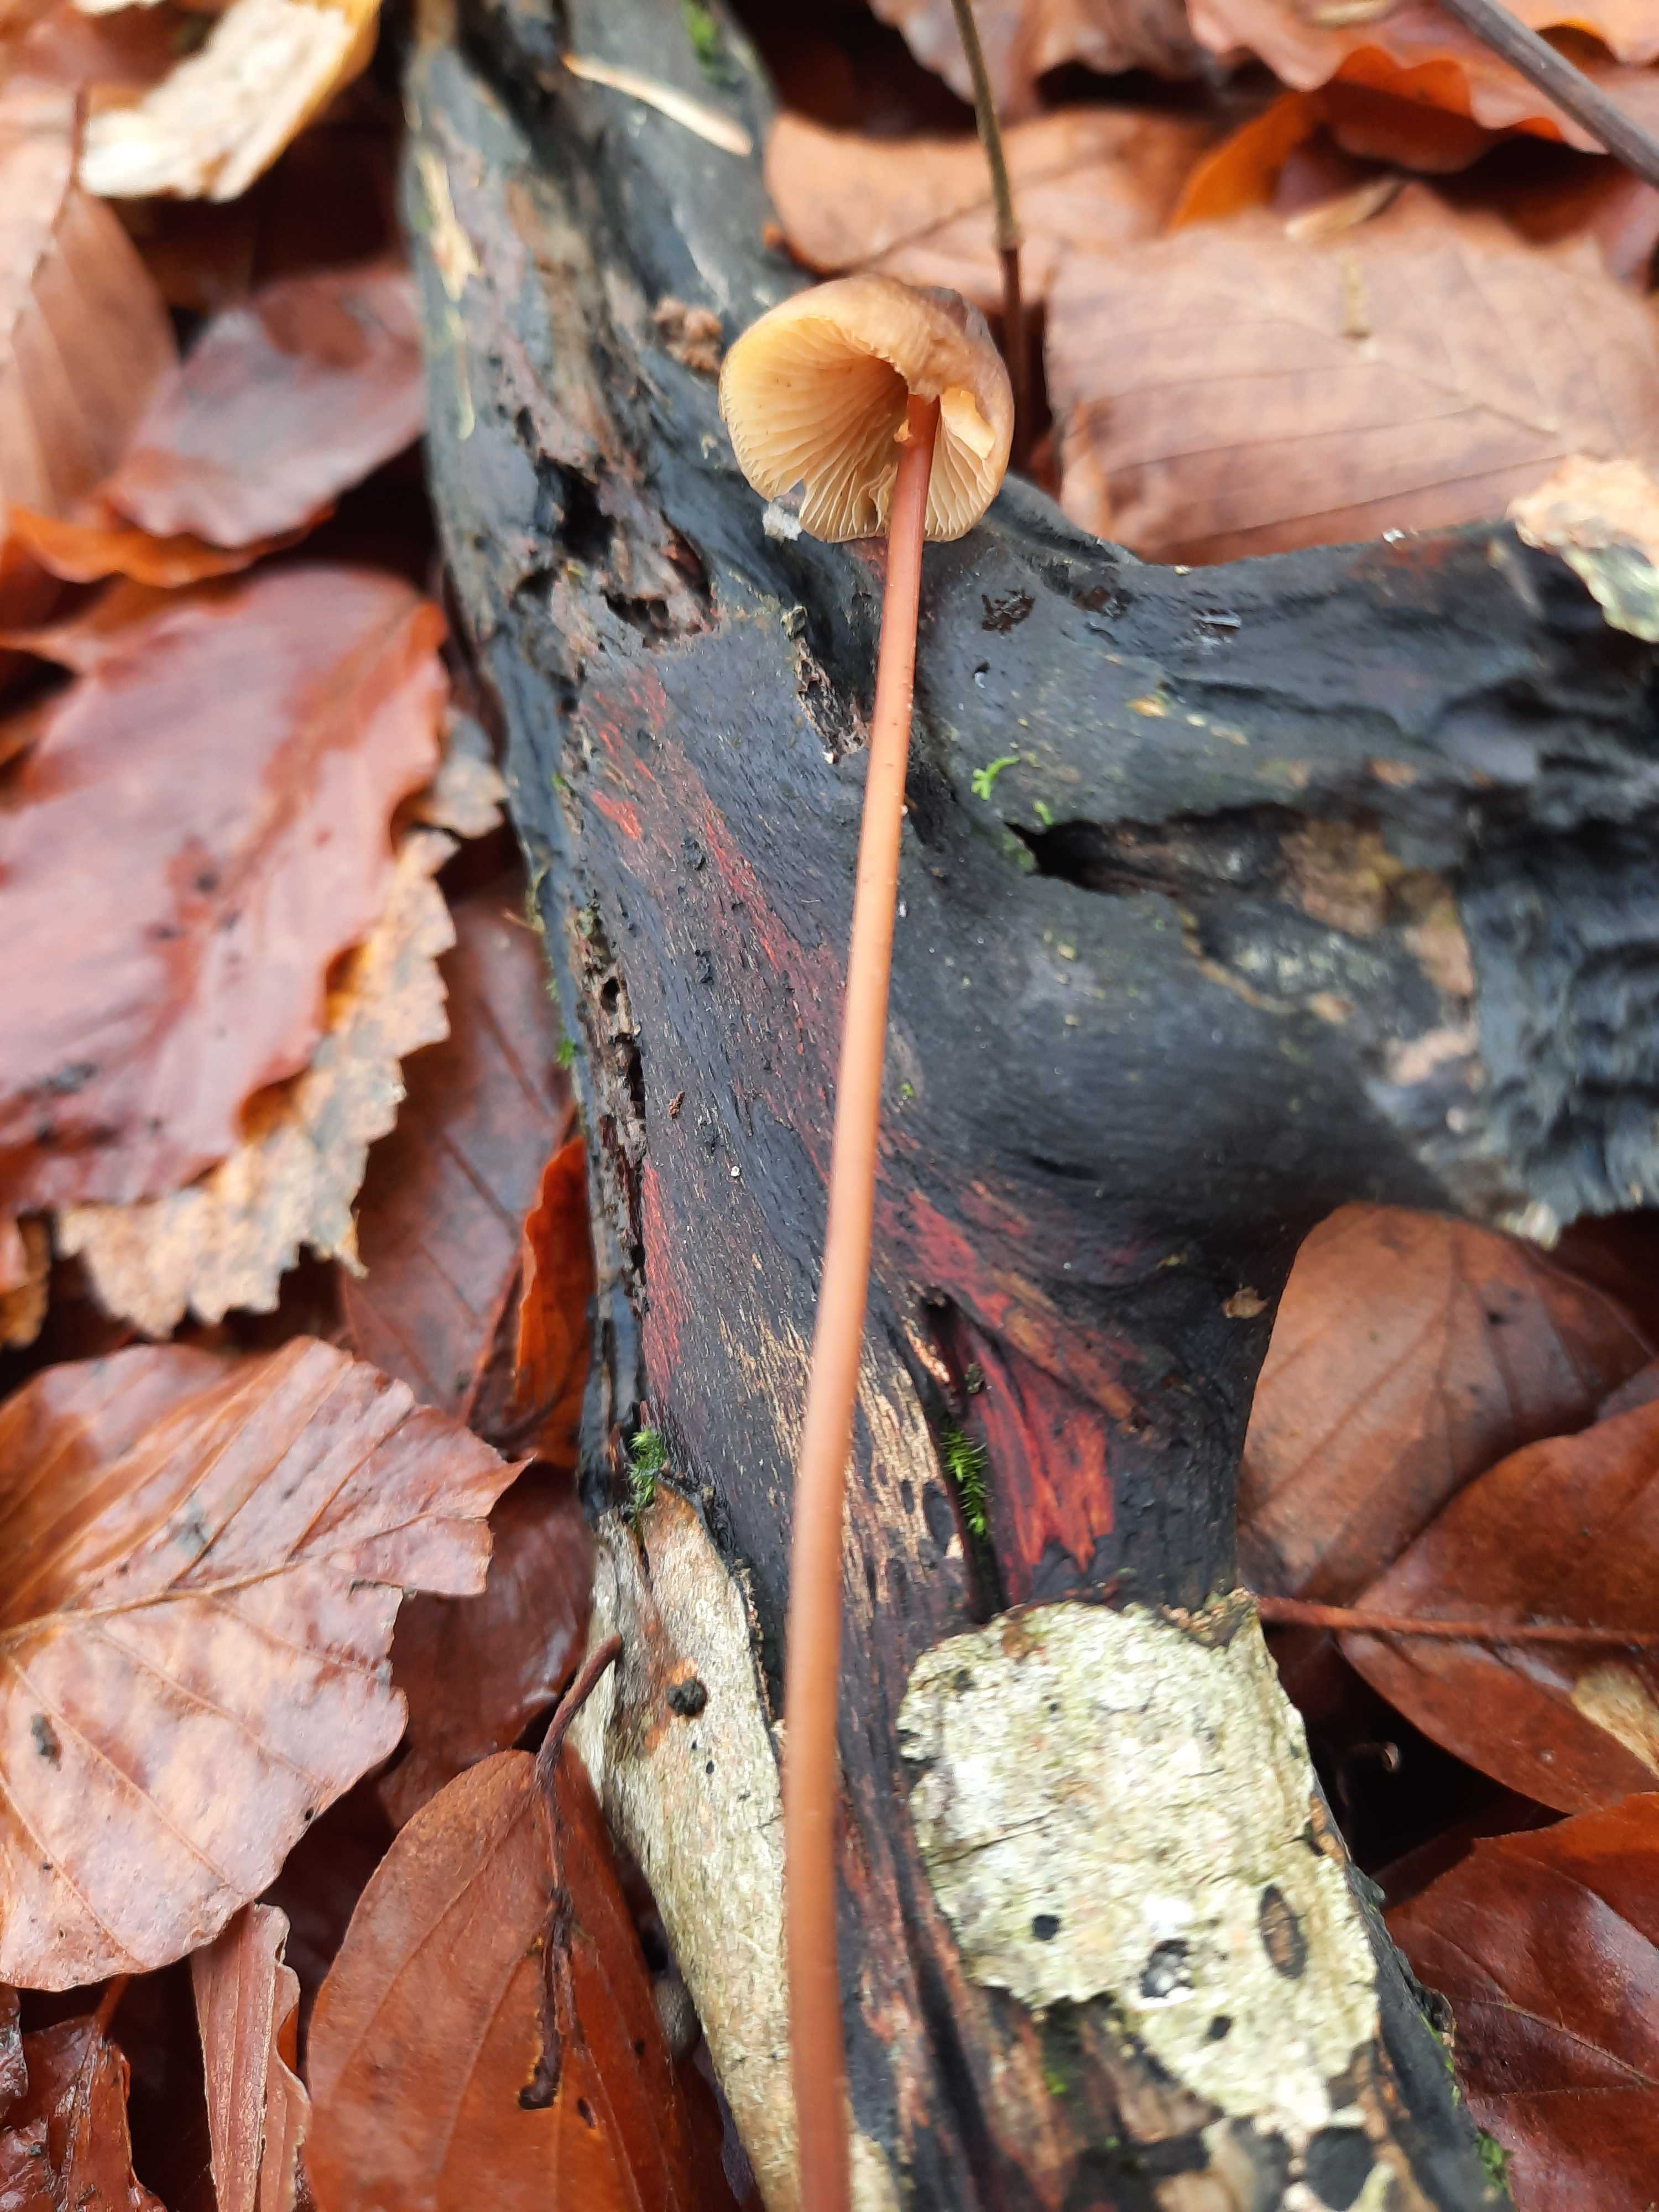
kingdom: Fungi
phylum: Basidiomycota
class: Agaricomycetes
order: Agaricales
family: Mycenaceae
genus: Mycena
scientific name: Mycena crocata
